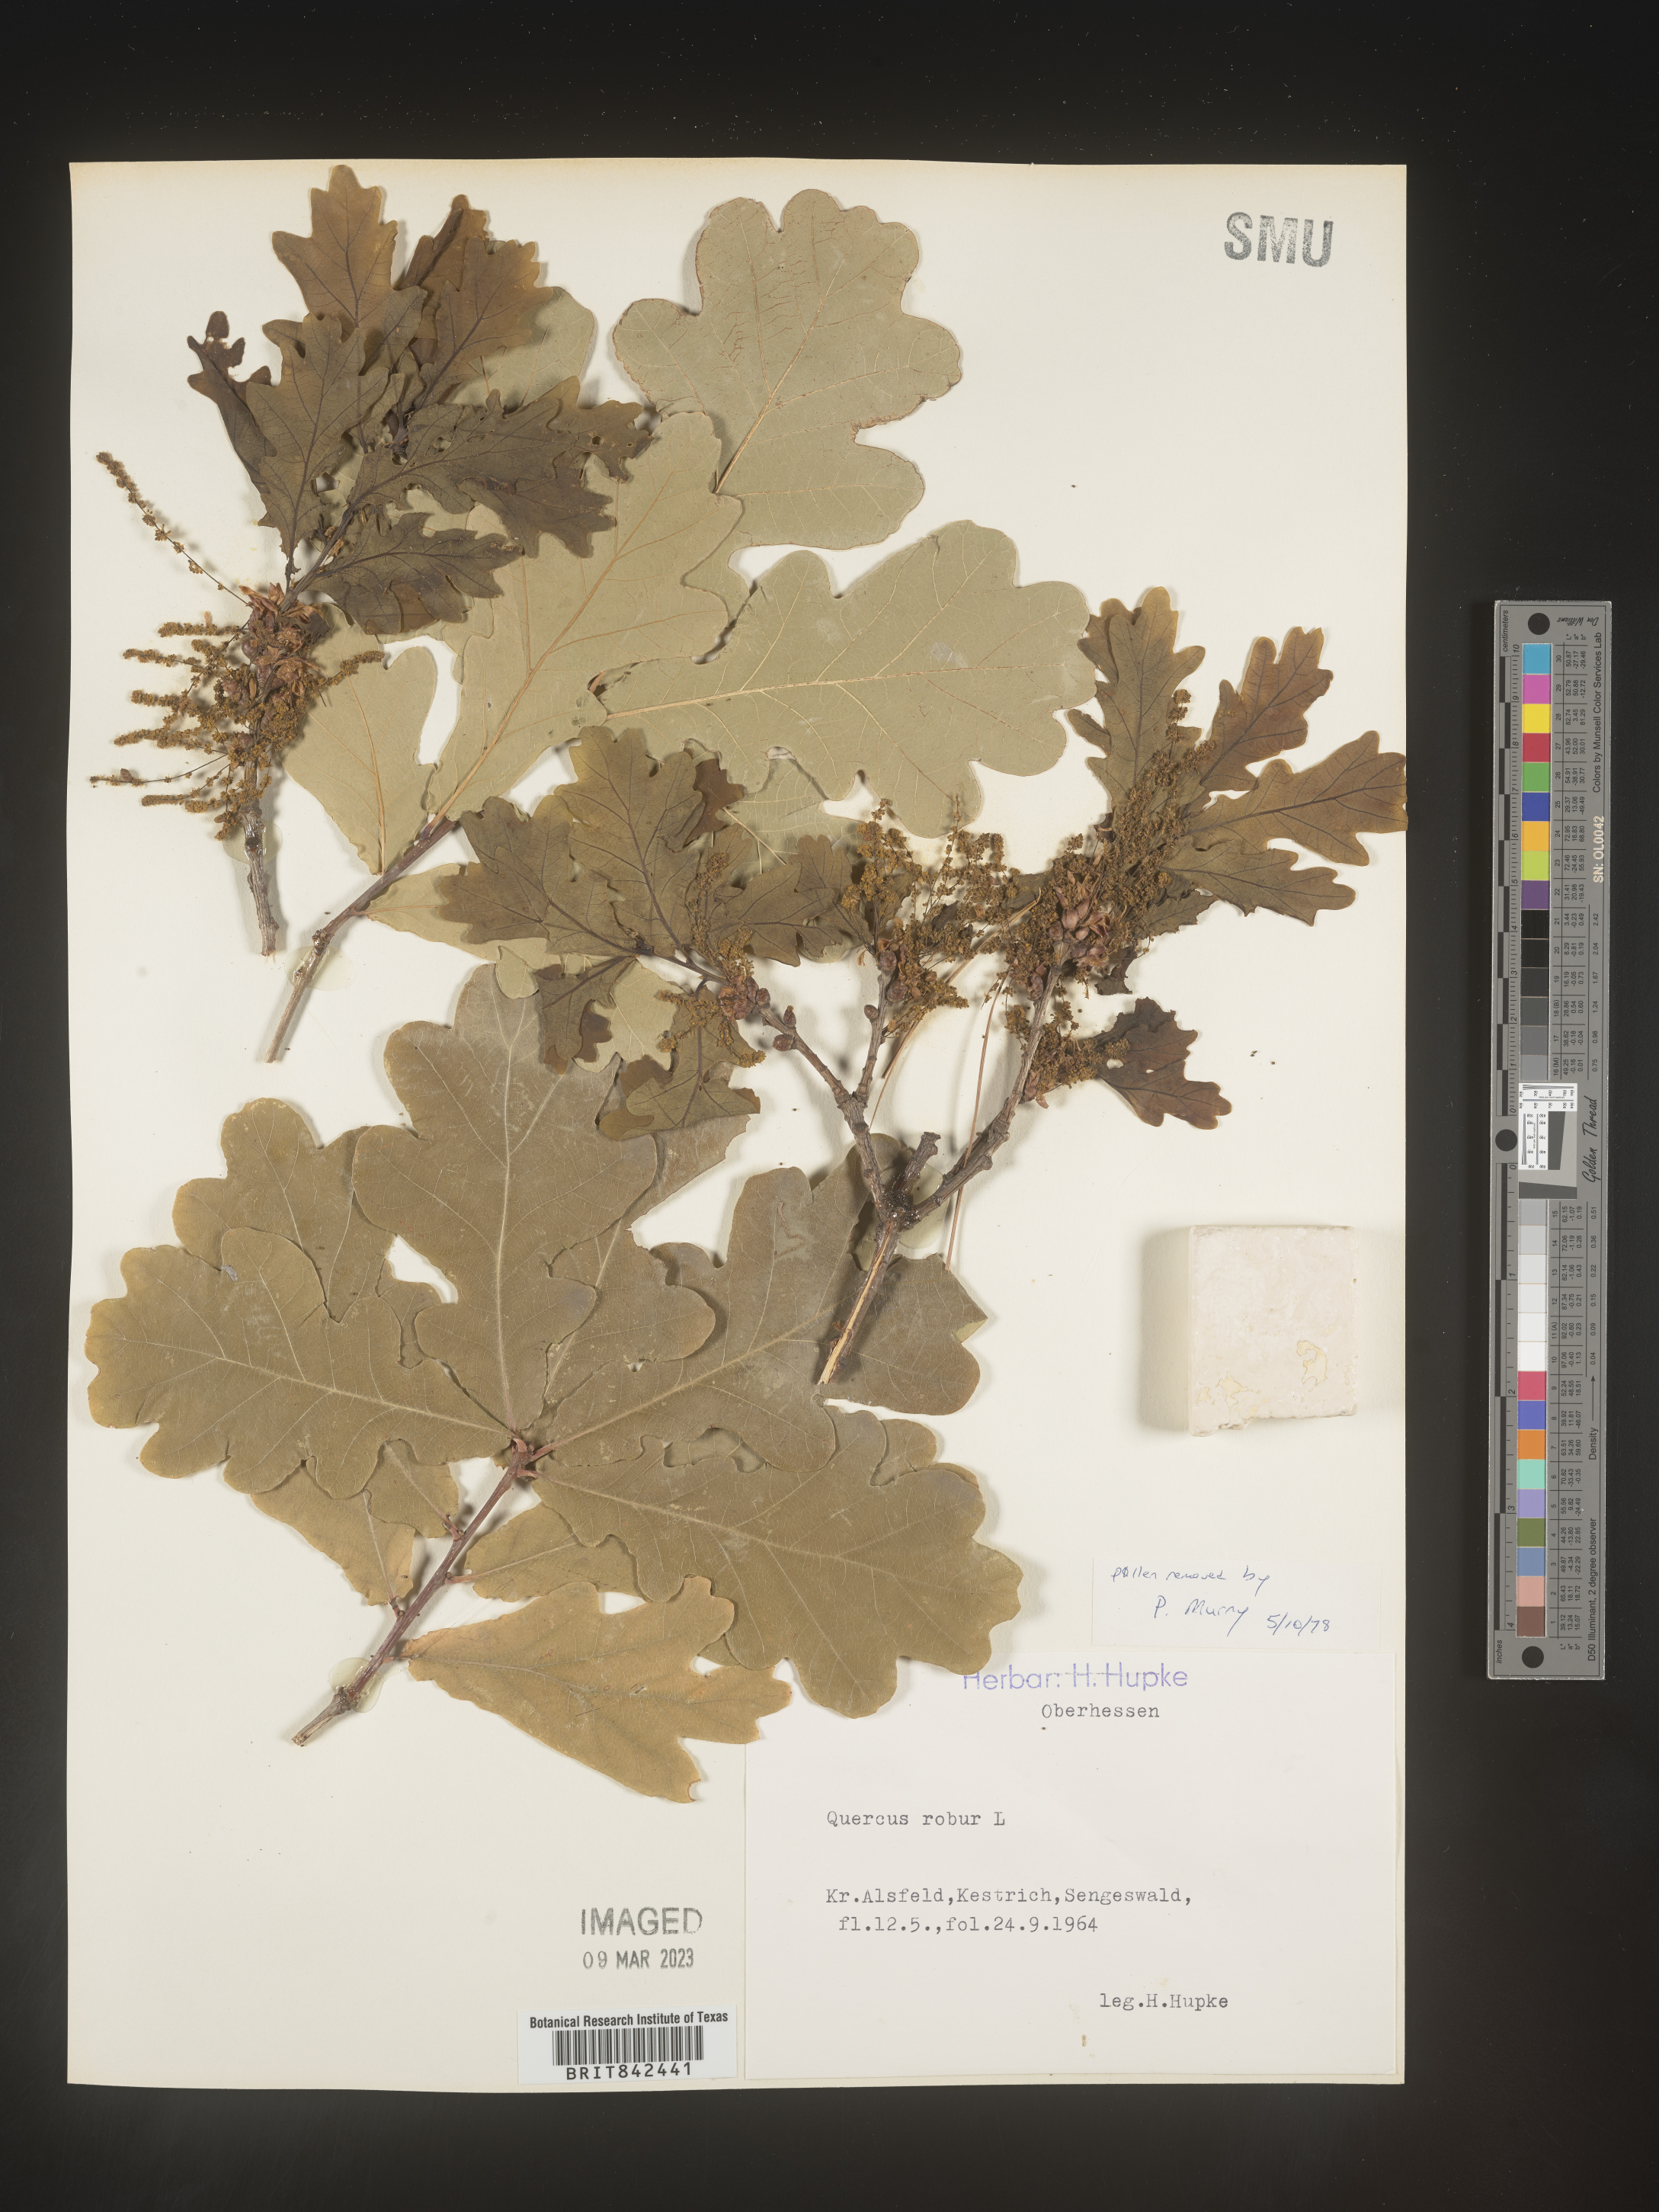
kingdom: Plantae
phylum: Tracheophyta
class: Magnoliopsida
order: Fagales
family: Fagaceae
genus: Quercus
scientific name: Quercus
